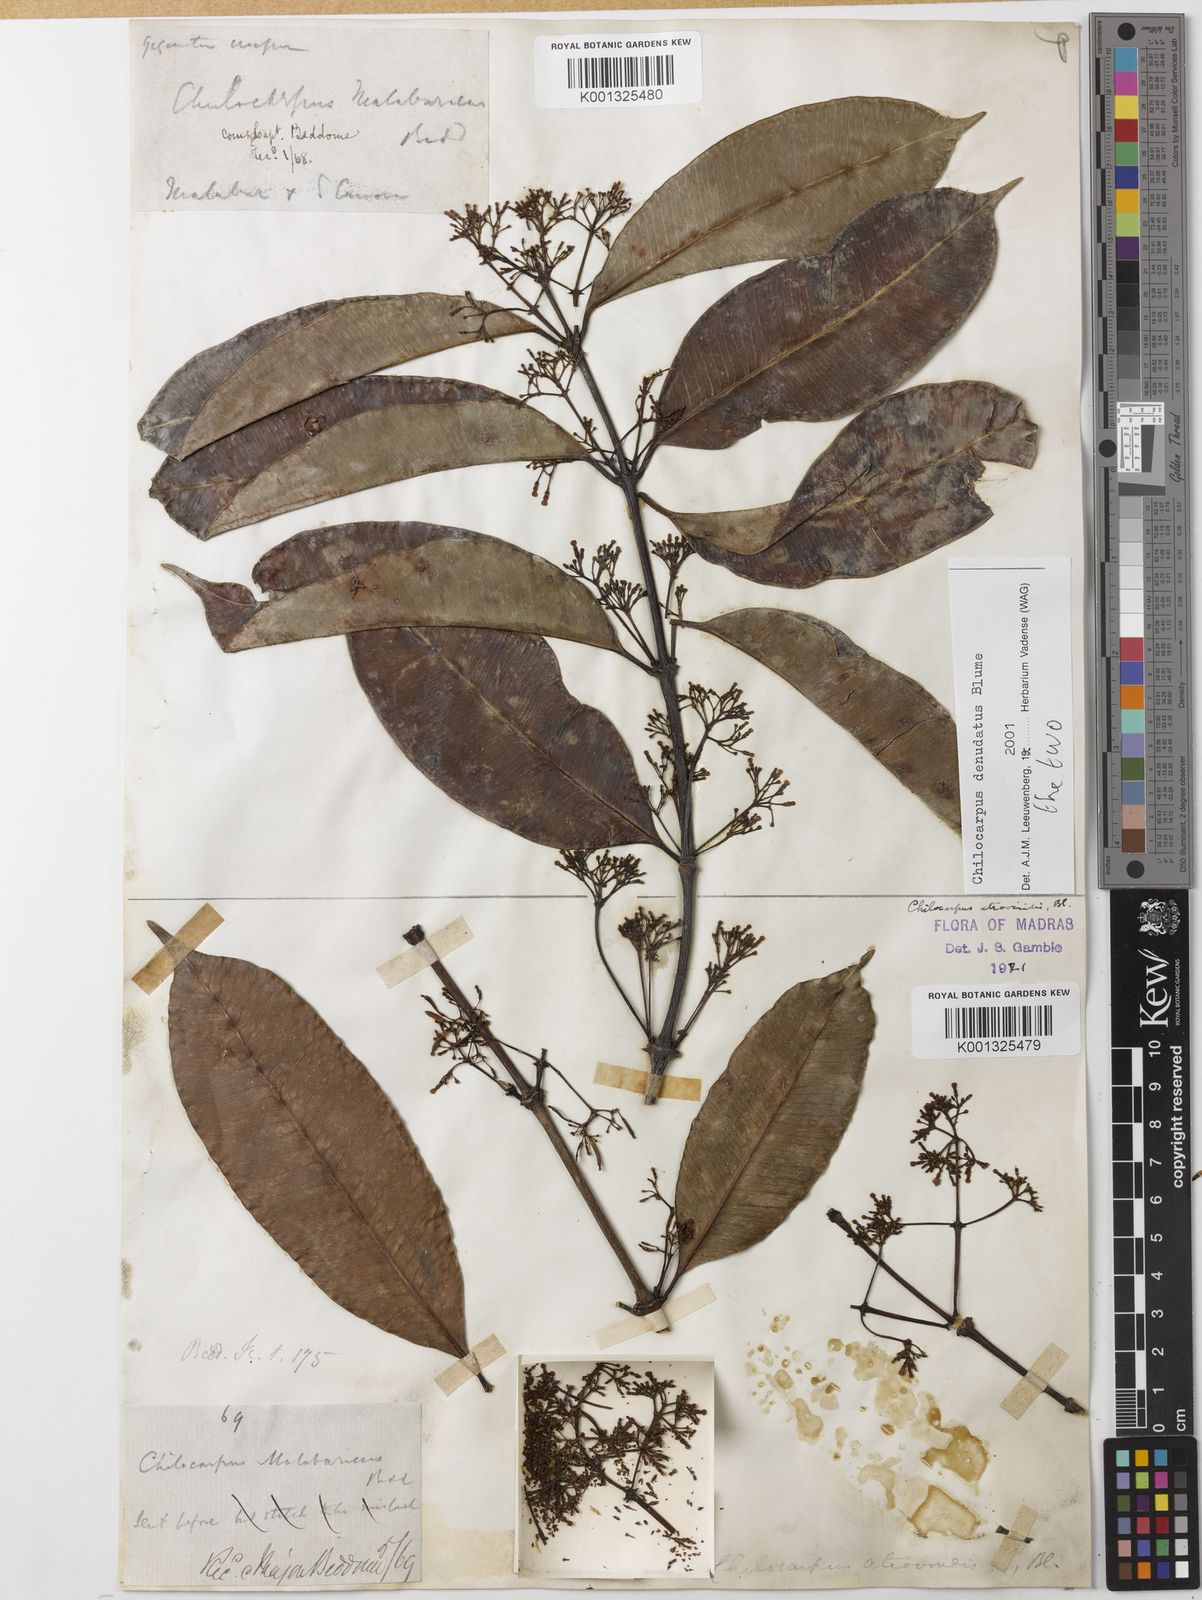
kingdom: Plantae
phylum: Tracheophyta
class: Magnoliopsida
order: Gentianales
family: Apocynaceae
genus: Chilocarpus
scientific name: Chilocarpus denudatus
